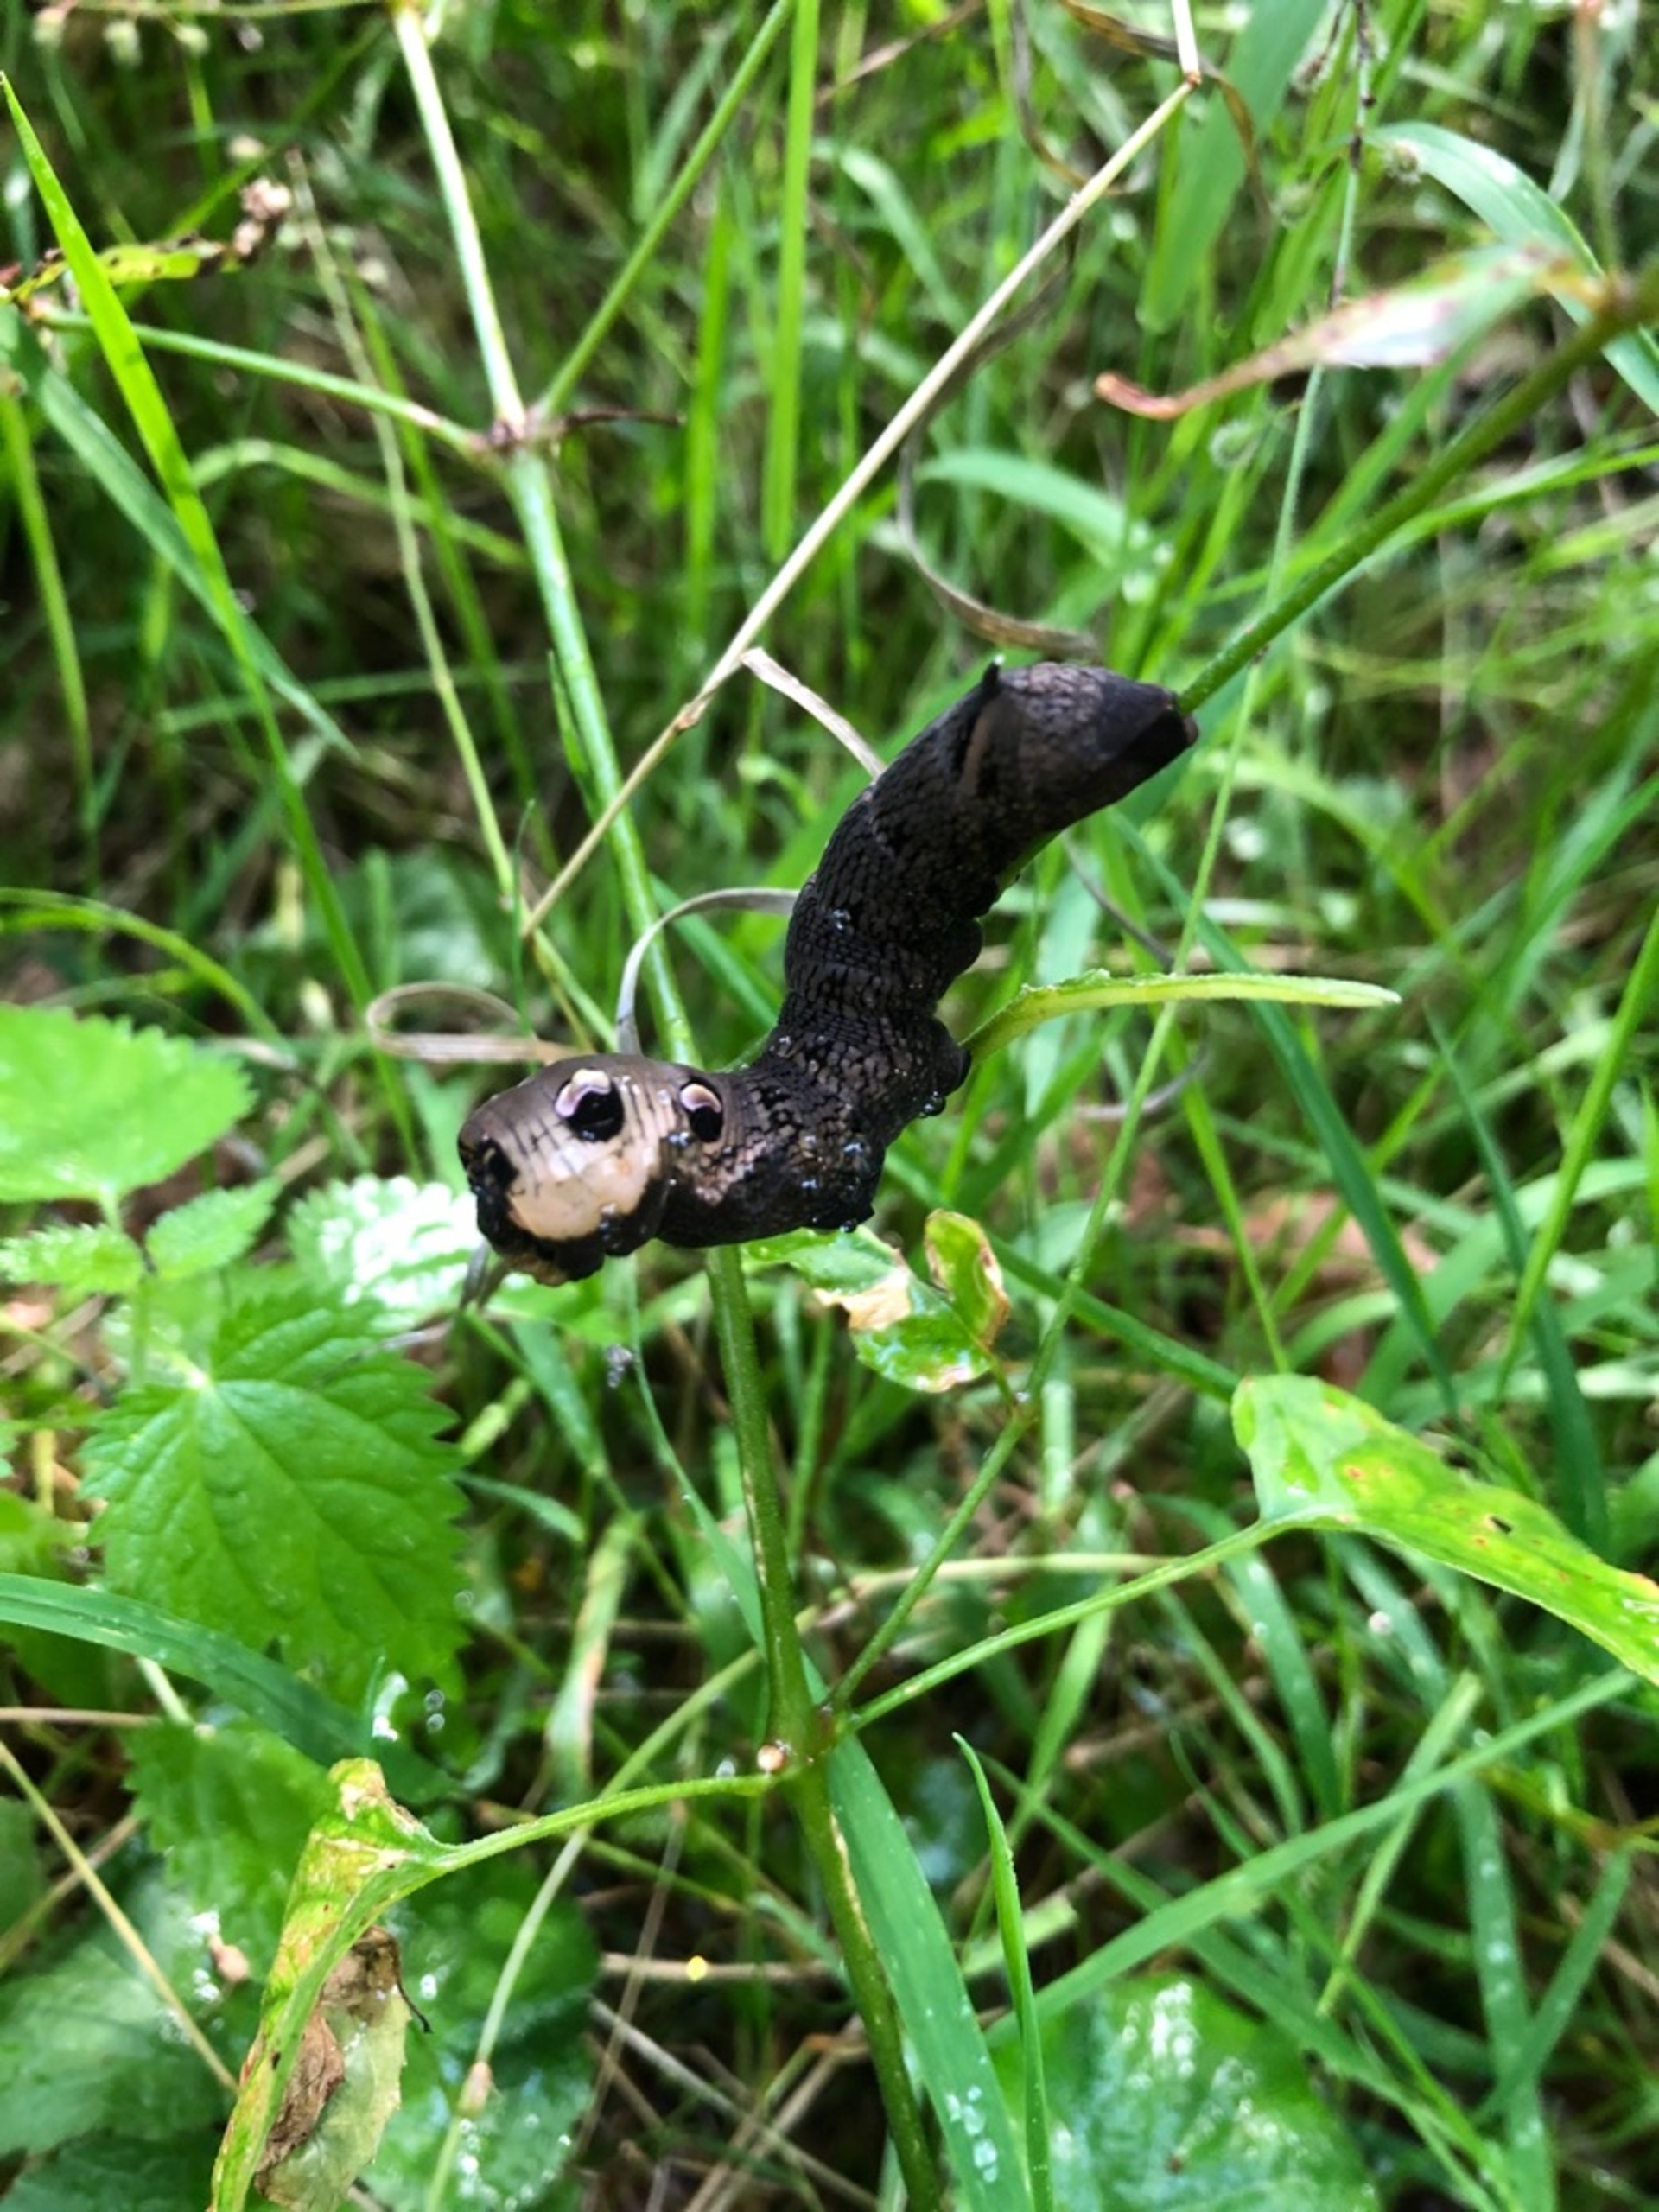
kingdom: Animalia
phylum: Arthropoda
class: Insecta
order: Lepidoptera
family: Sphingidae
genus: Deilephila
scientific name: Deilephila elpenor
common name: Dueurtsværmer
